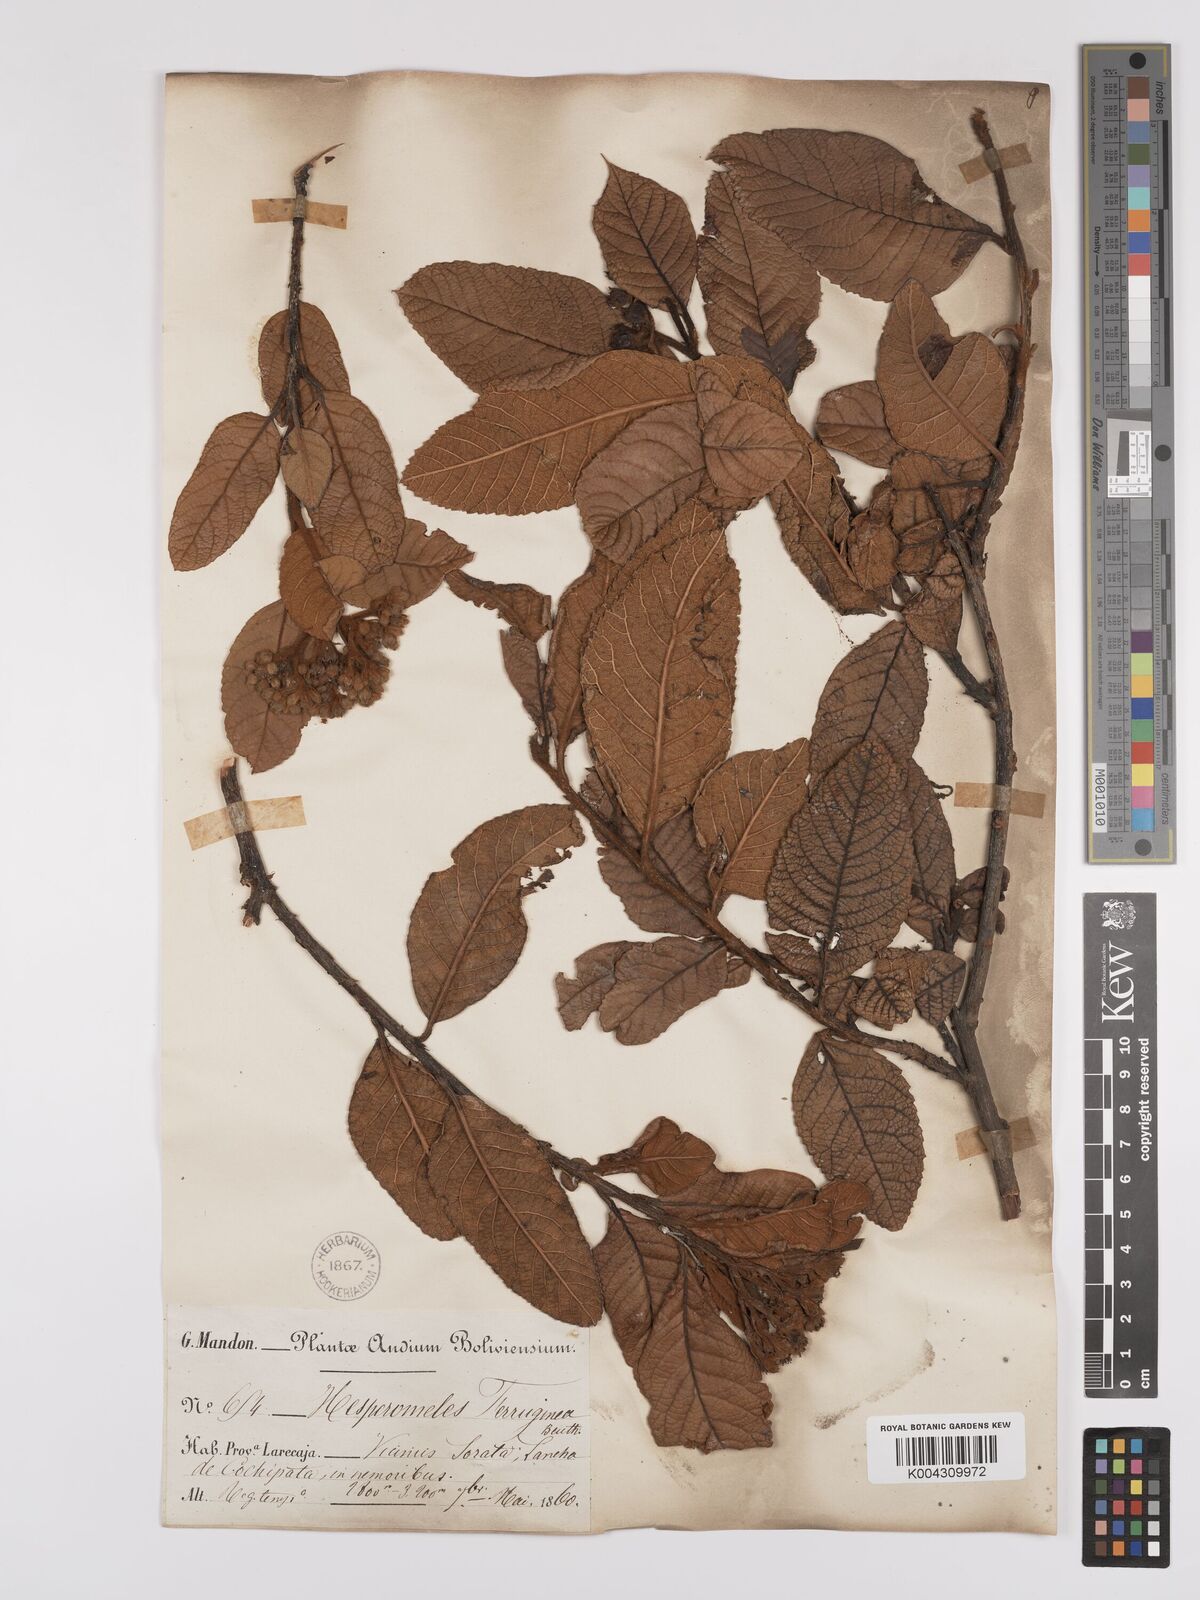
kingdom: Plantae
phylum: Tracheophyta
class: Magnoliopsida
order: Rosales
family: Rosaceae
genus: Hesperomeles
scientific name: Hesperomeles ferruginea
